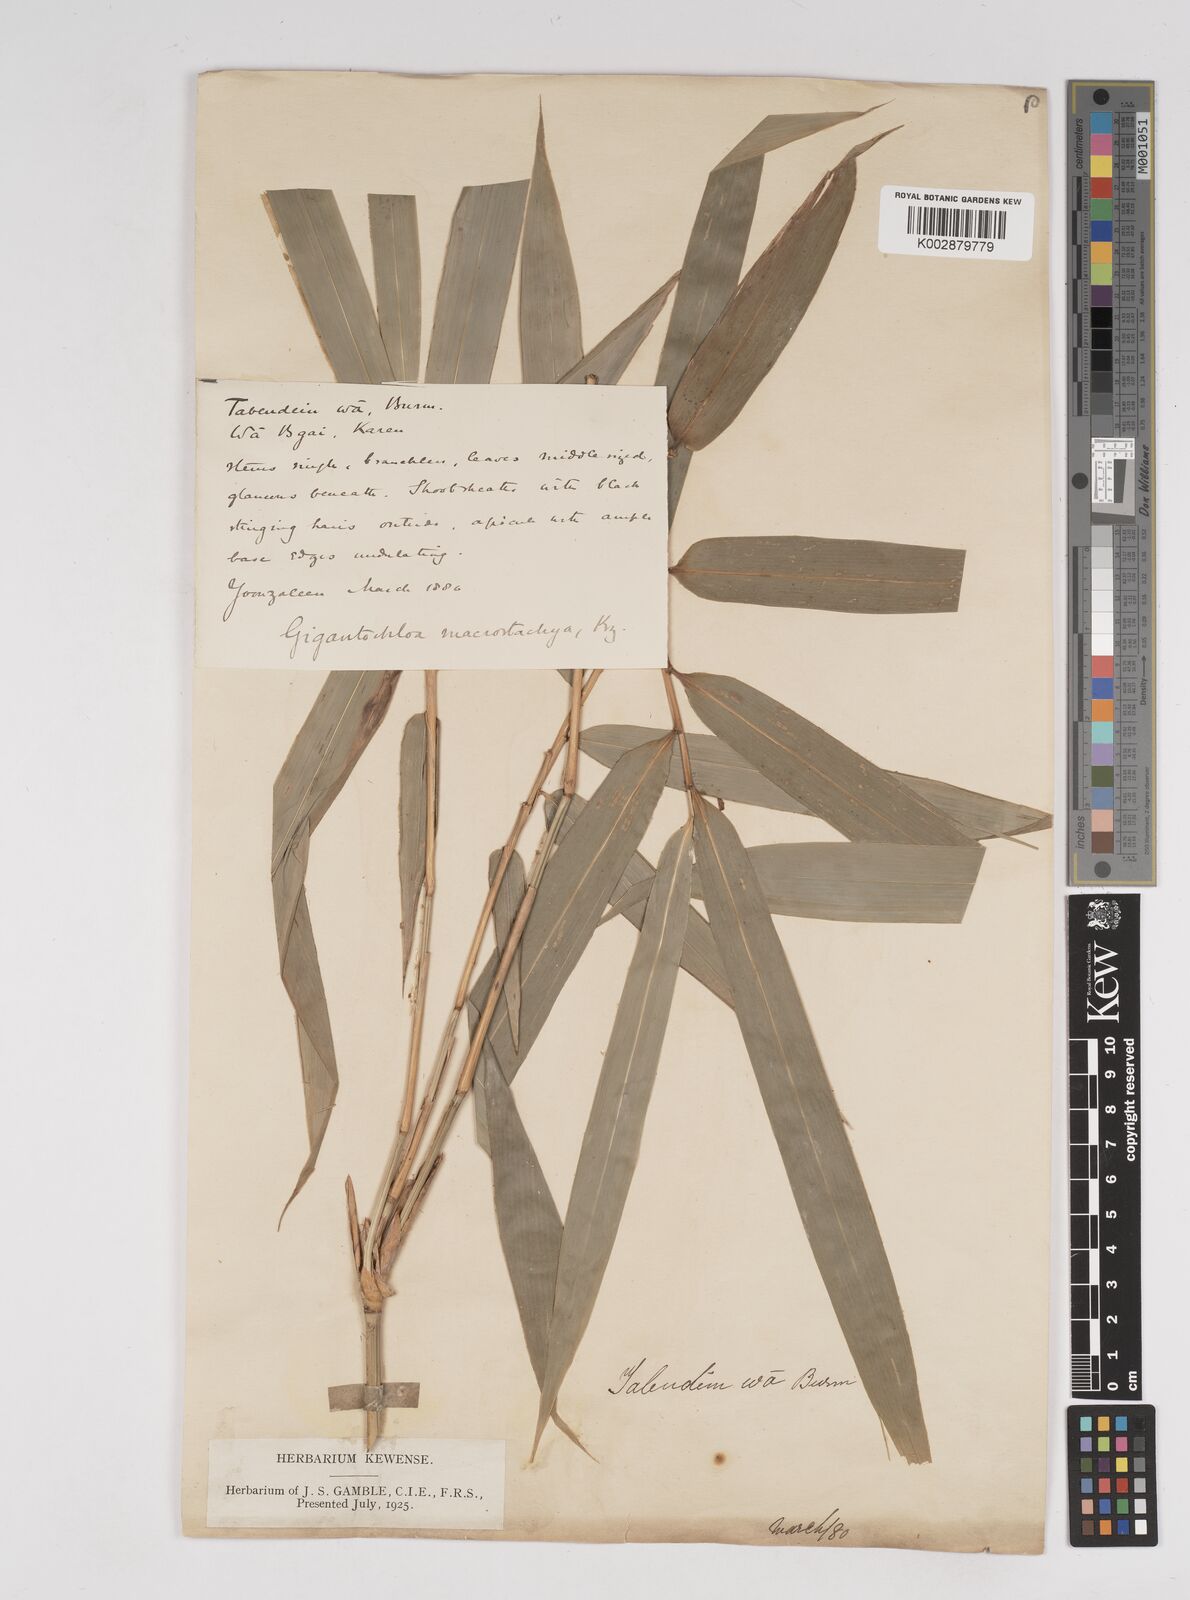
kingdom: Plantae
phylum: Tracheophyta
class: Liliopsida
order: Poales
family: Poaceae
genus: Gigantochloa
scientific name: Gigantochloa macrostachya
